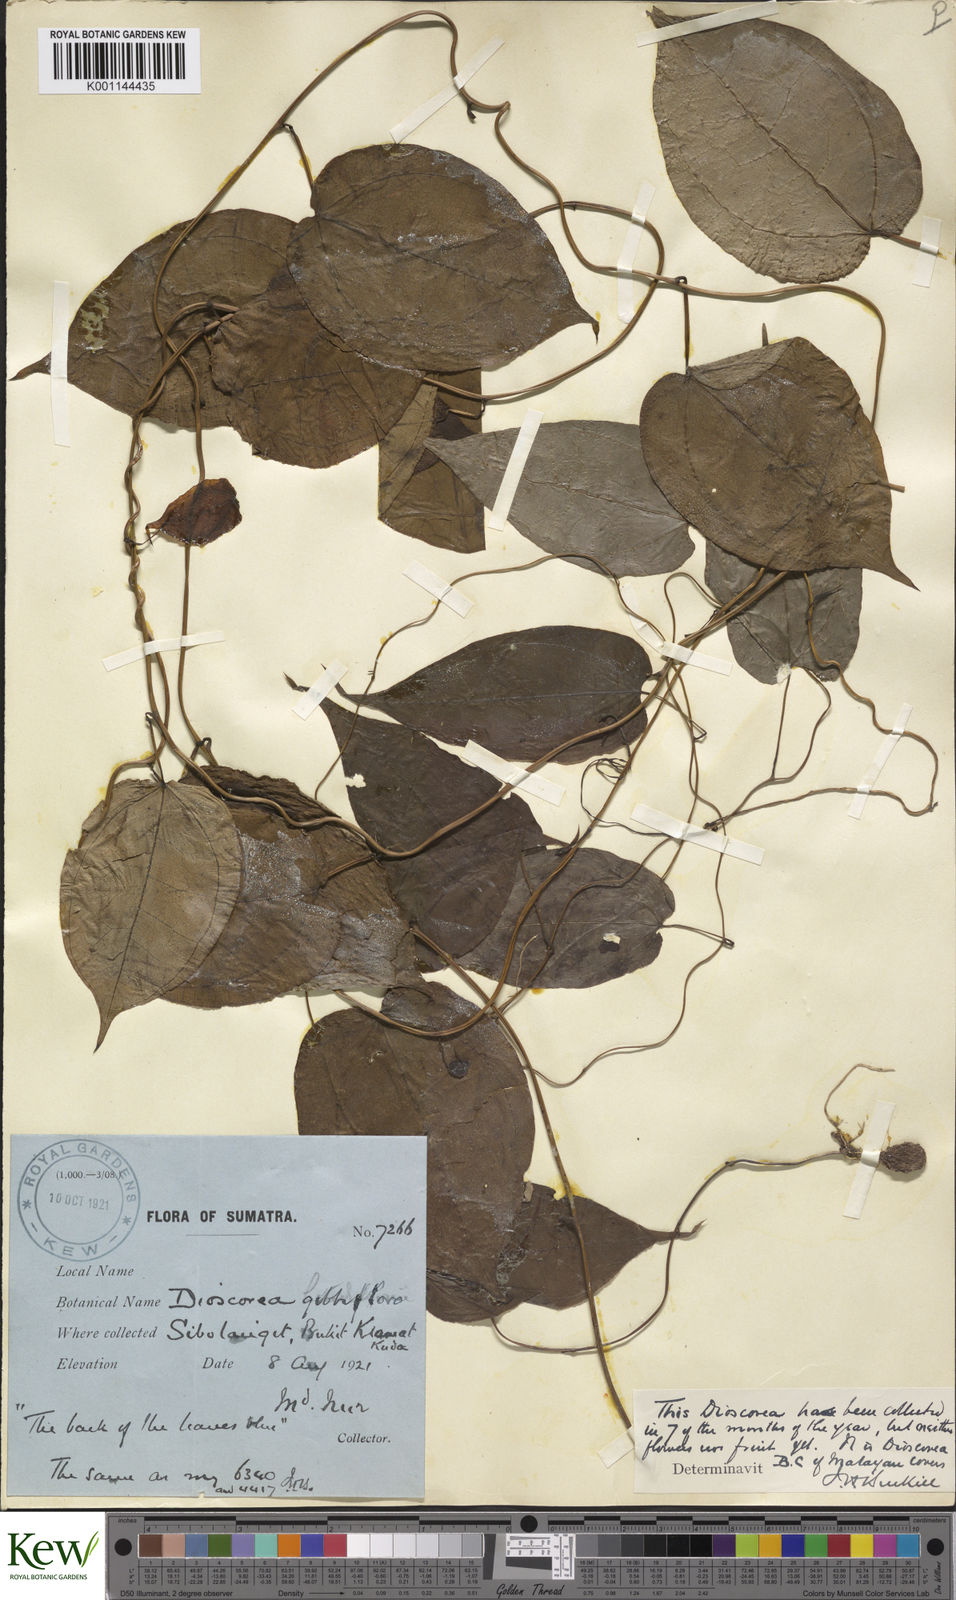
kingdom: Plantae
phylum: Tracheophyta
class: Liliopsida
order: Dioscoreales
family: Dioscoreaceae
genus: Dioscorea
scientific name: Dioscorea filiformis
